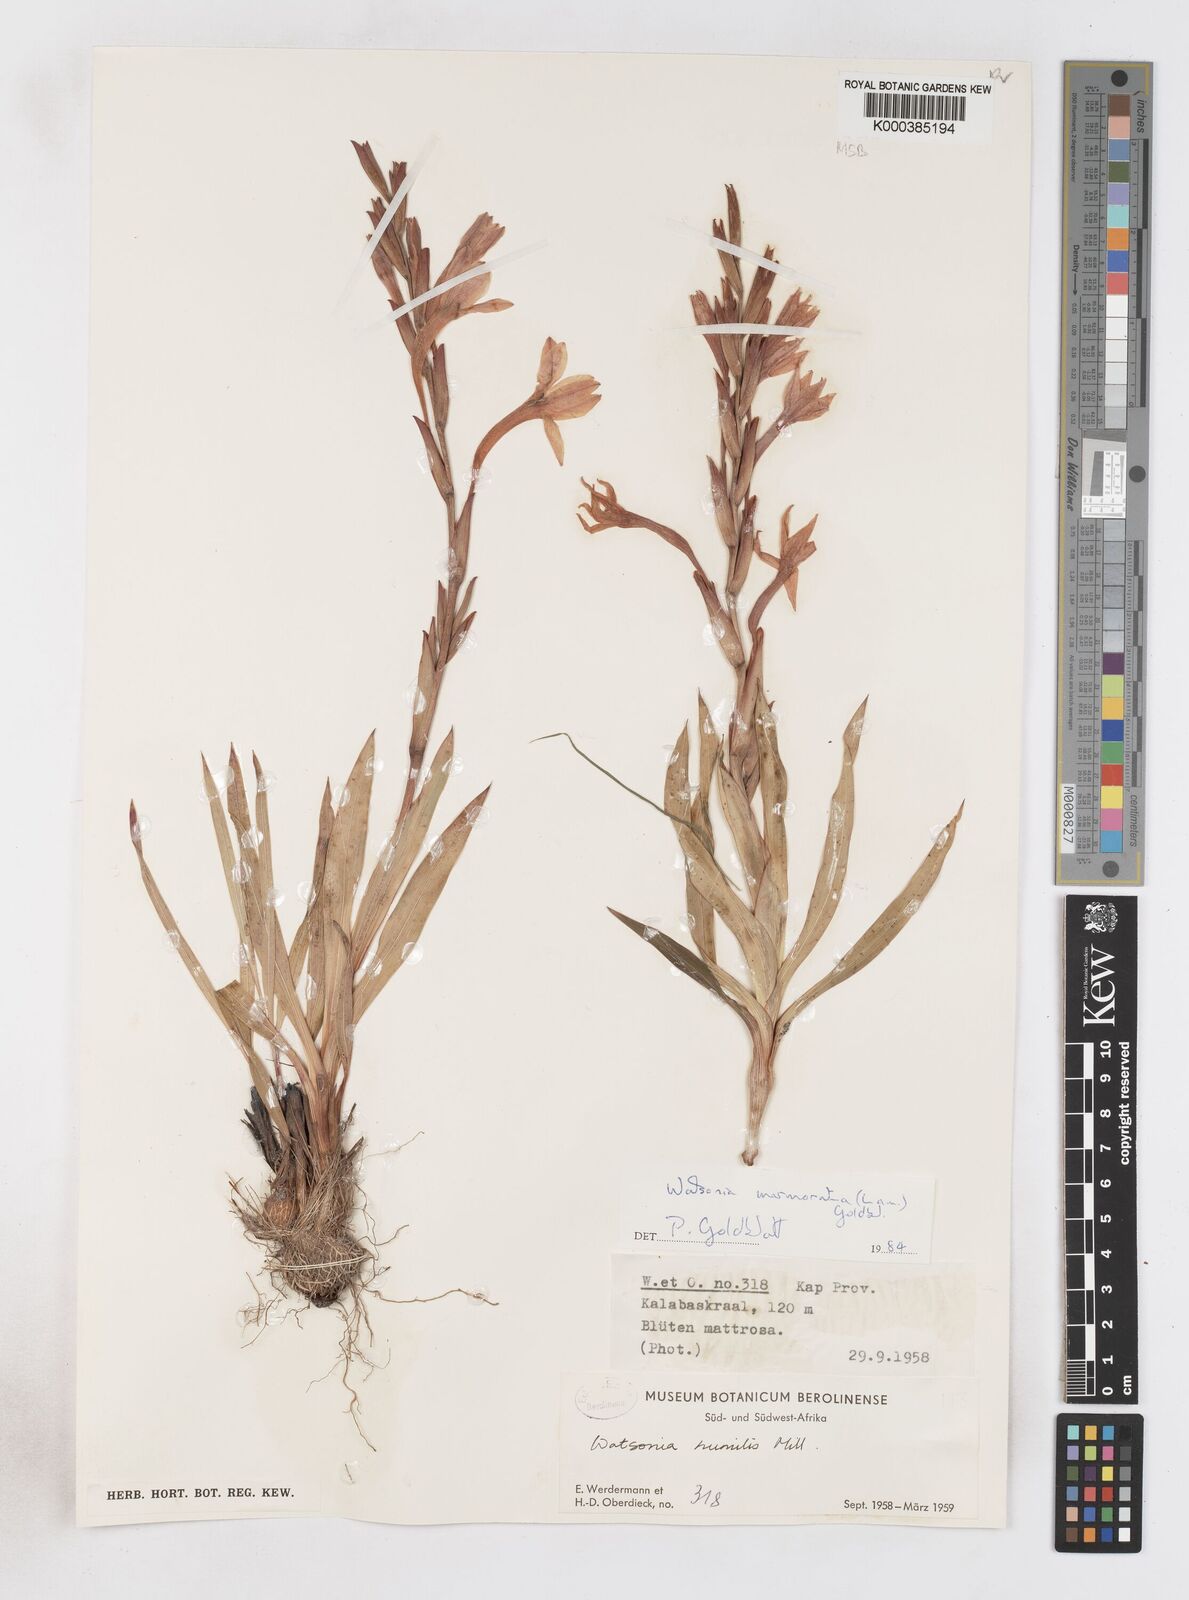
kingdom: Plantae
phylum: Tracheophyta
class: Liliopsida
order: Asparagales
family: Iridaceae
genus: Watsonia
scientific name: Watsonia humilis
